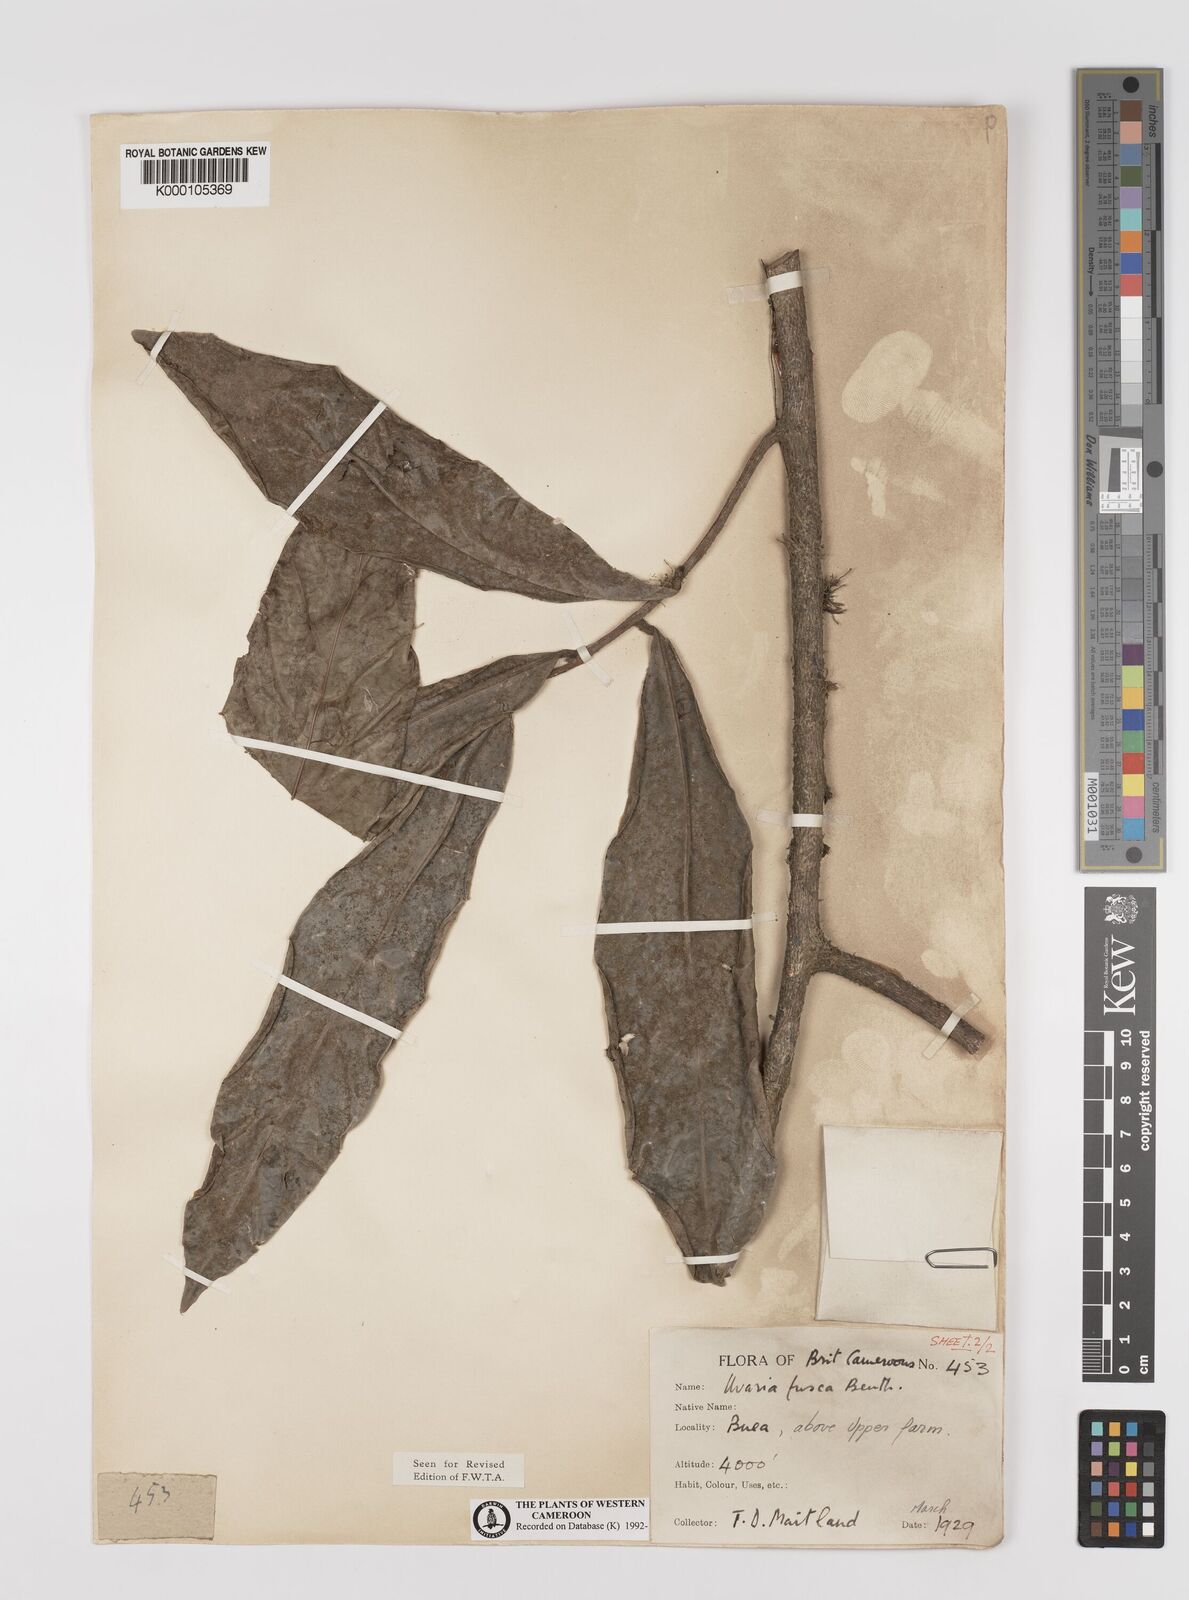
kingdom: Plantae
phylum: Tracheophyta
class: Magnoliopsida
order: Magnoliales
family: Annonaceae
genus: Uvariodendron
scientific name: Uvariodendron fuscum
